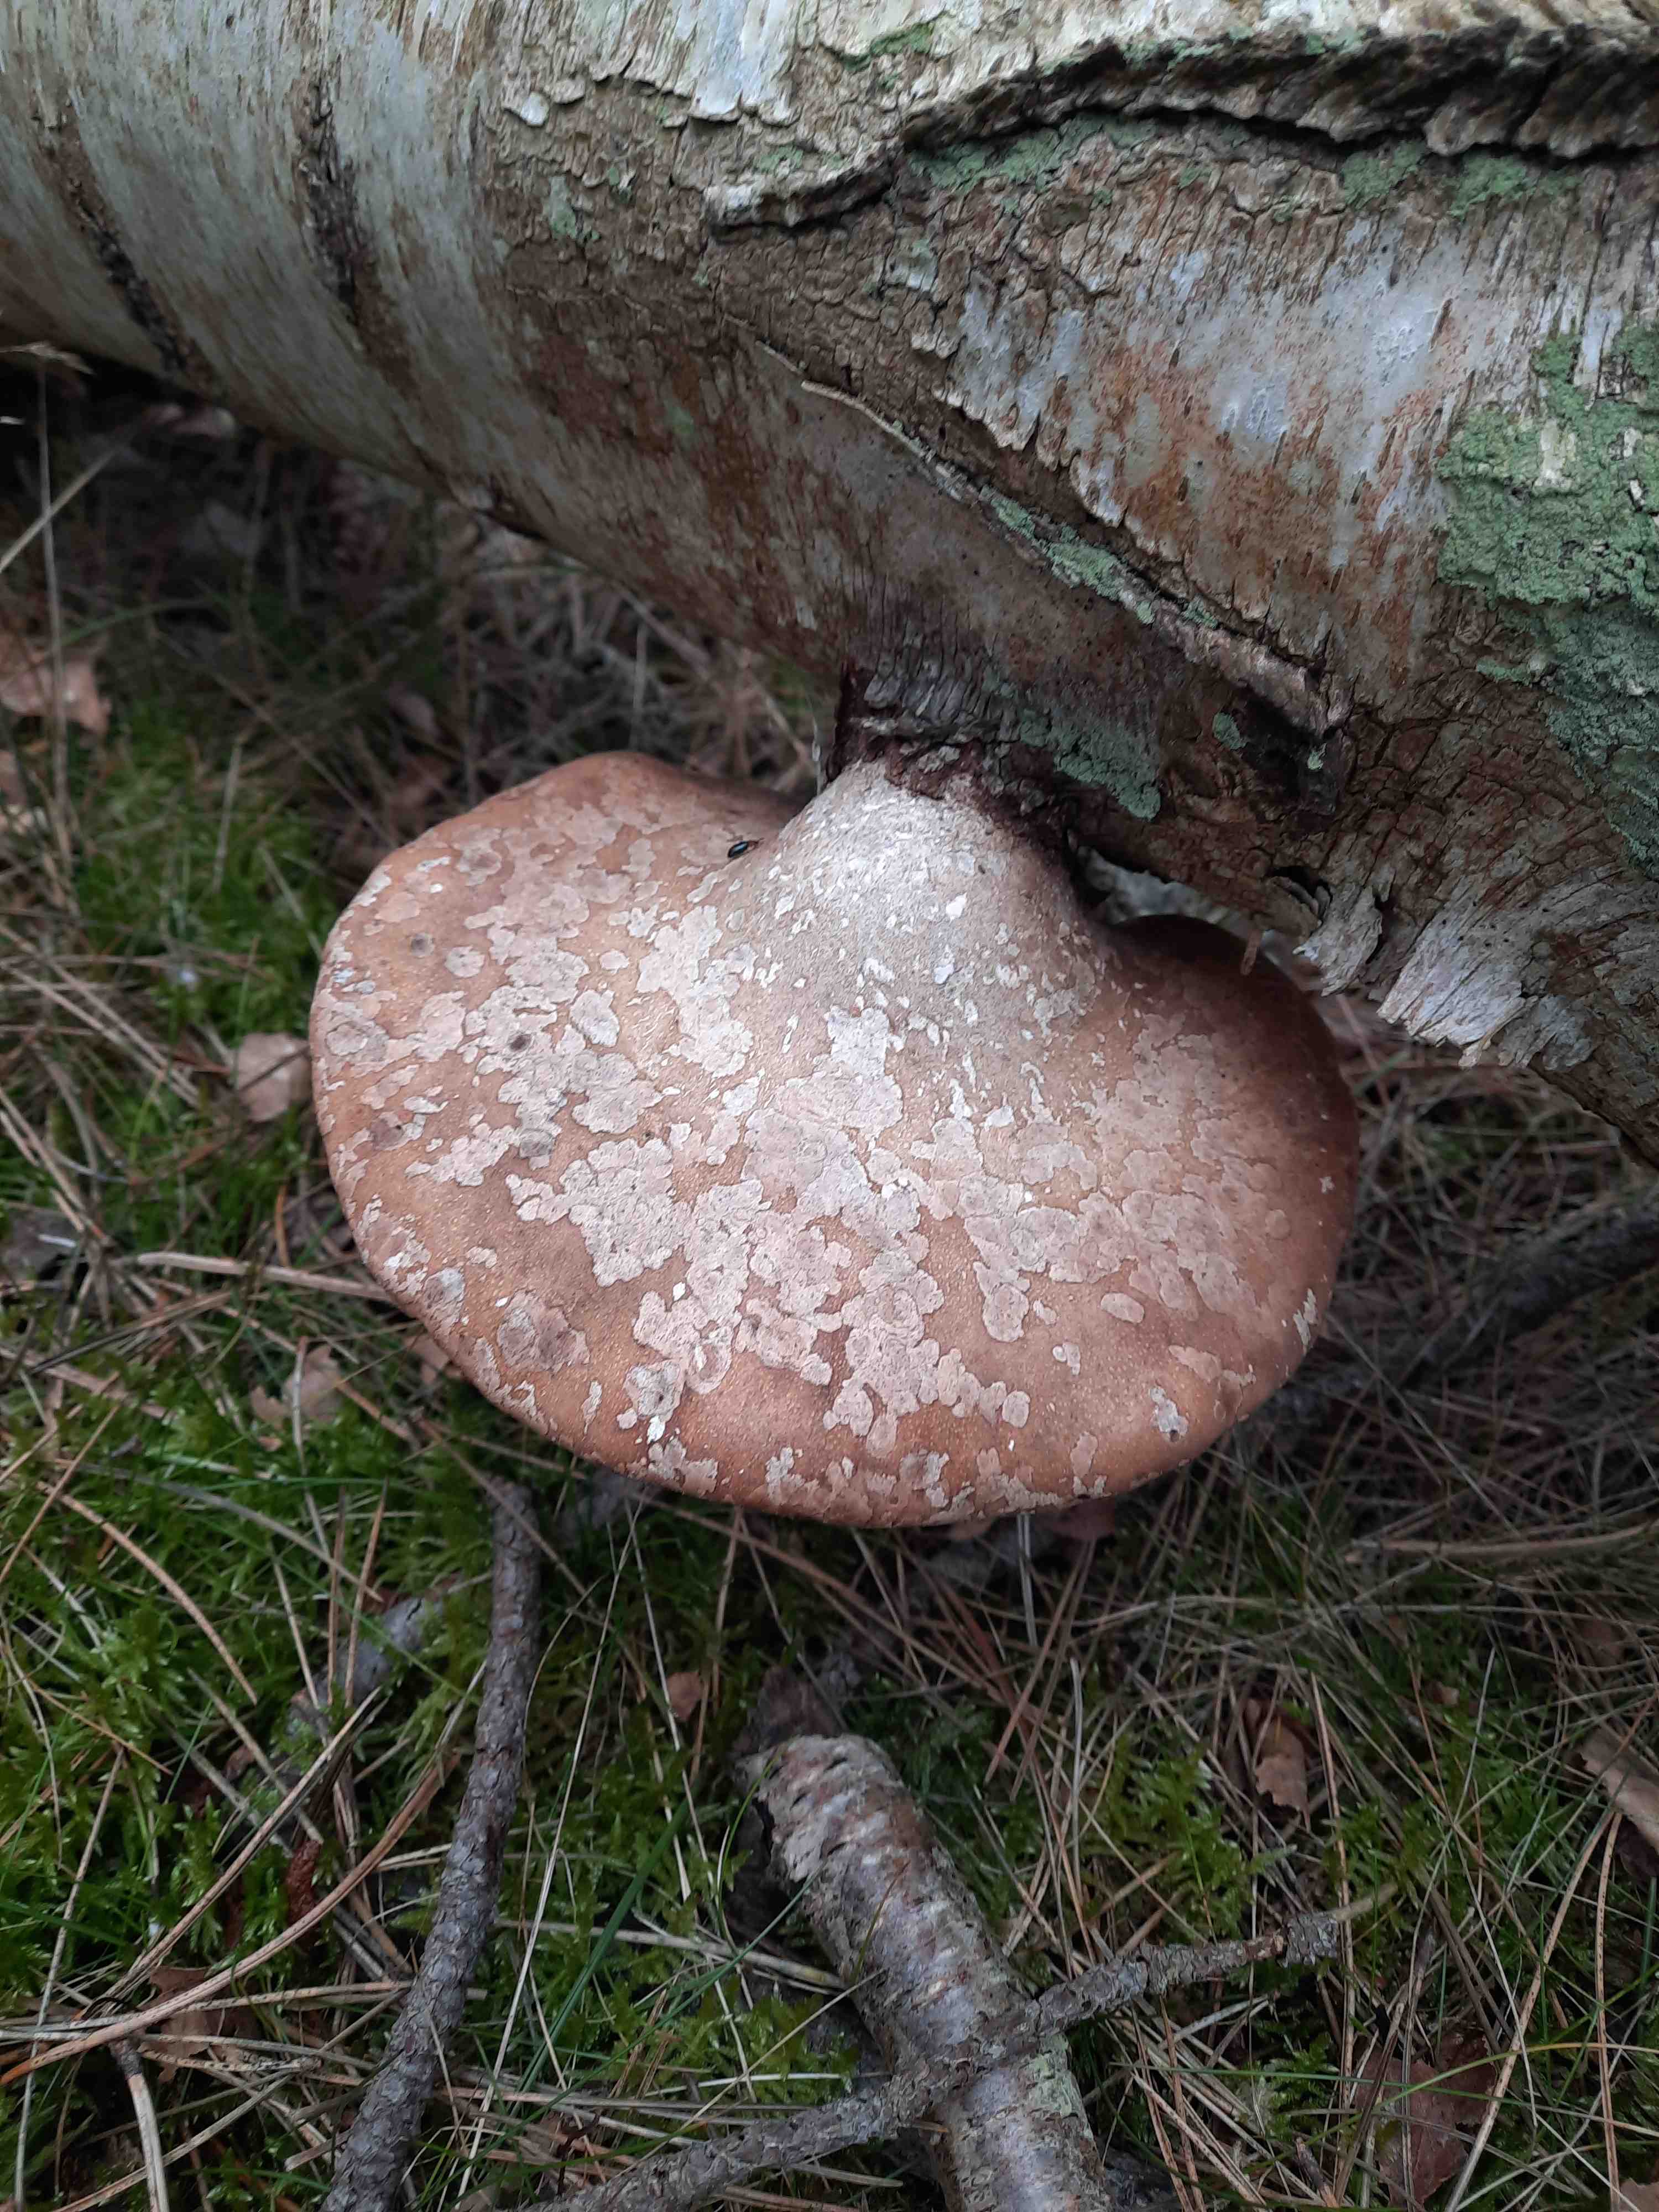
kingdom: Fungi
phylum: Basidiomycota
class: Agaricomycetes
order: Polyporales
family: Fomitopsidaceae
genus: Fomitopsis
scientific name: Fomitopsis betulina
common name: birkeporesvamp
